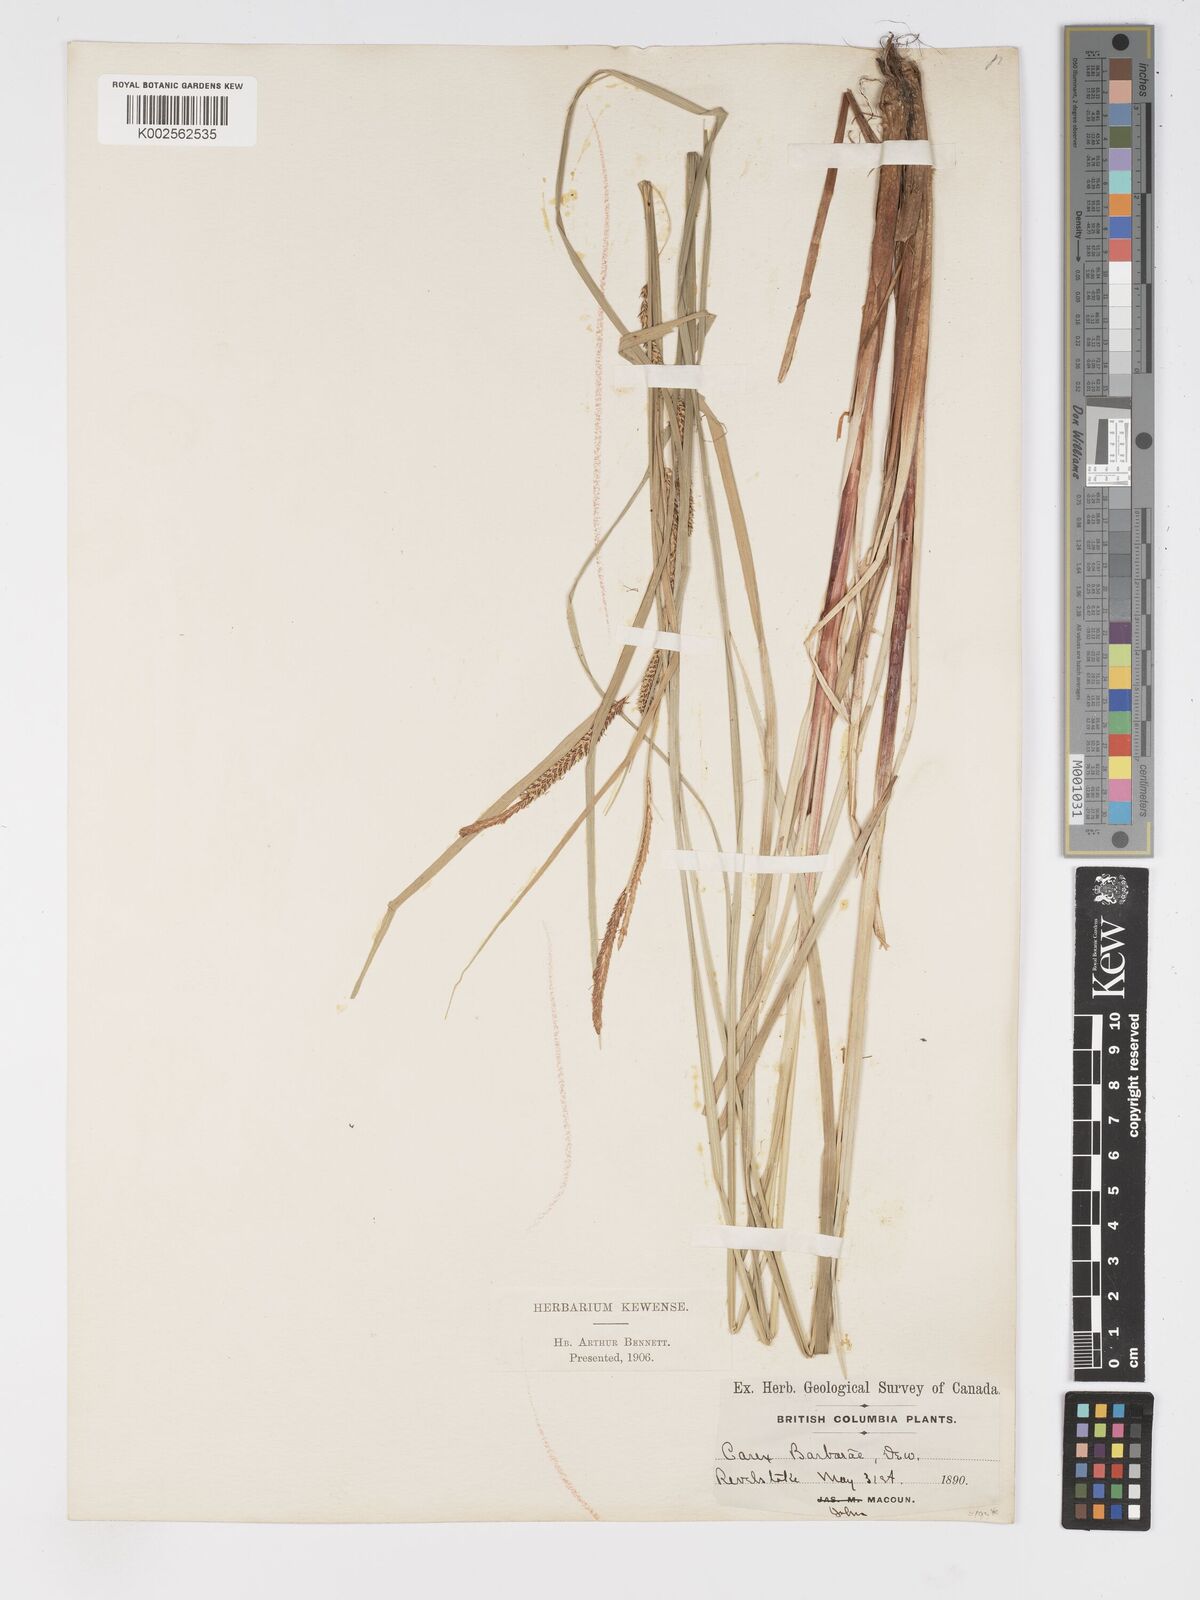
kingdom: Plantae
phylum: Tracheophyta
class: Liliopsida
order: Poales
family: Cyperaceae
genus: Carex
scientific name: Carex schottii
